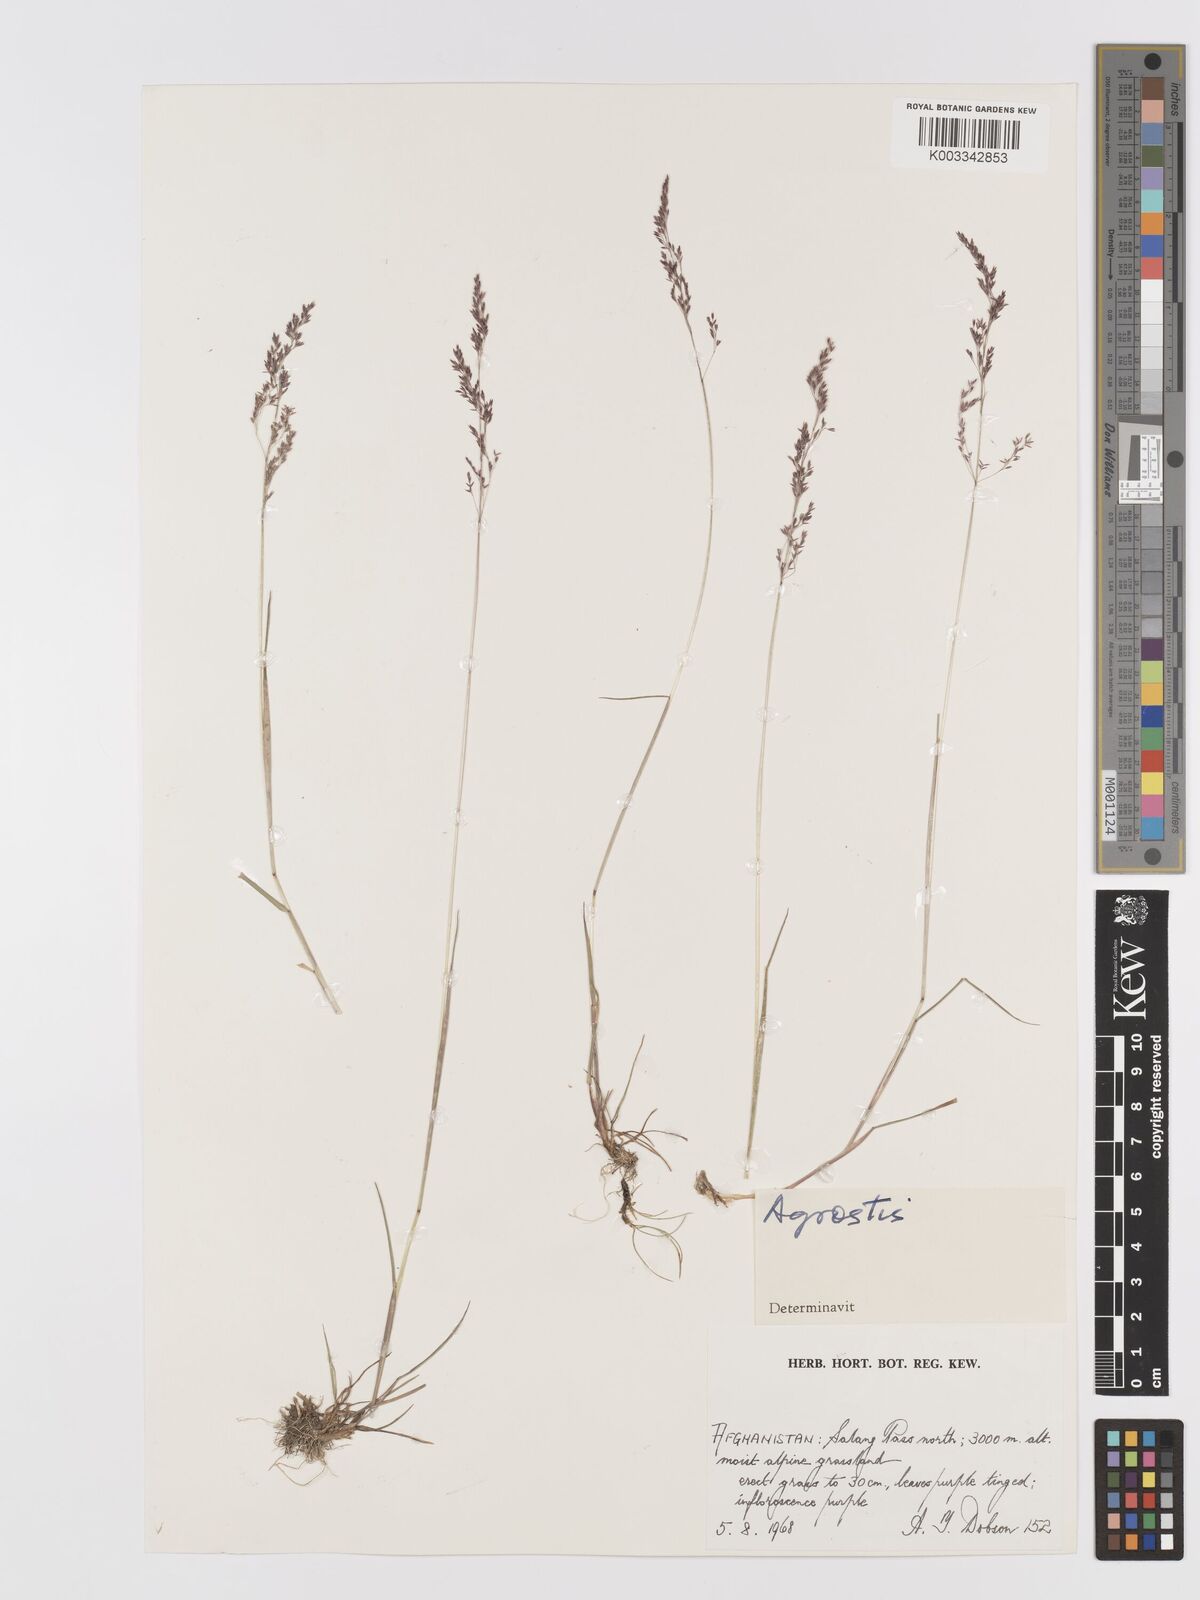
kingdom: Plantae
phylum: Tracheophyta
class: Liliopsida
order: Poales
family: Poaceae
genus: Agrostis
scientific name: Agrostis
